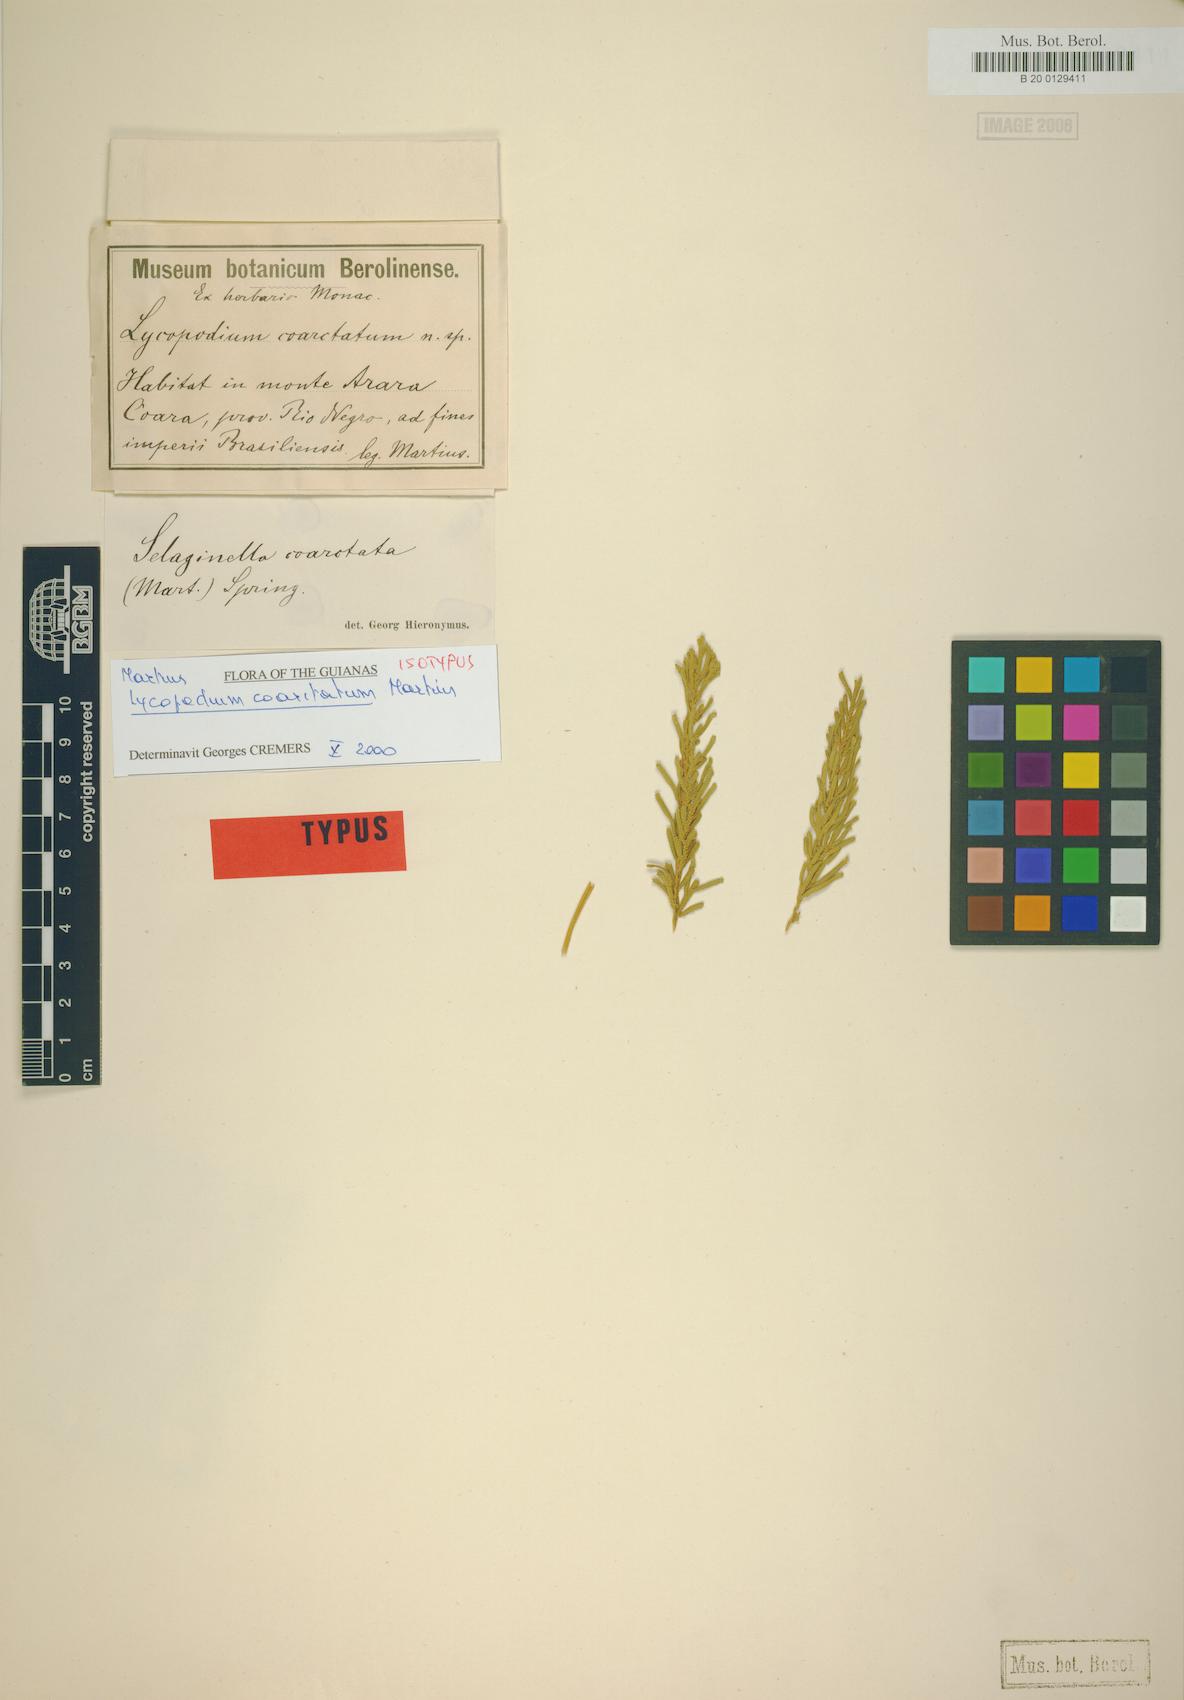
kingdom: Plantae
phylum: Tracheophyta
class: Lycopodiopsida
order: Selaginellales
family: Selaginellaceae
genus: Selaginella
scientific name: Selaginella coarctata
